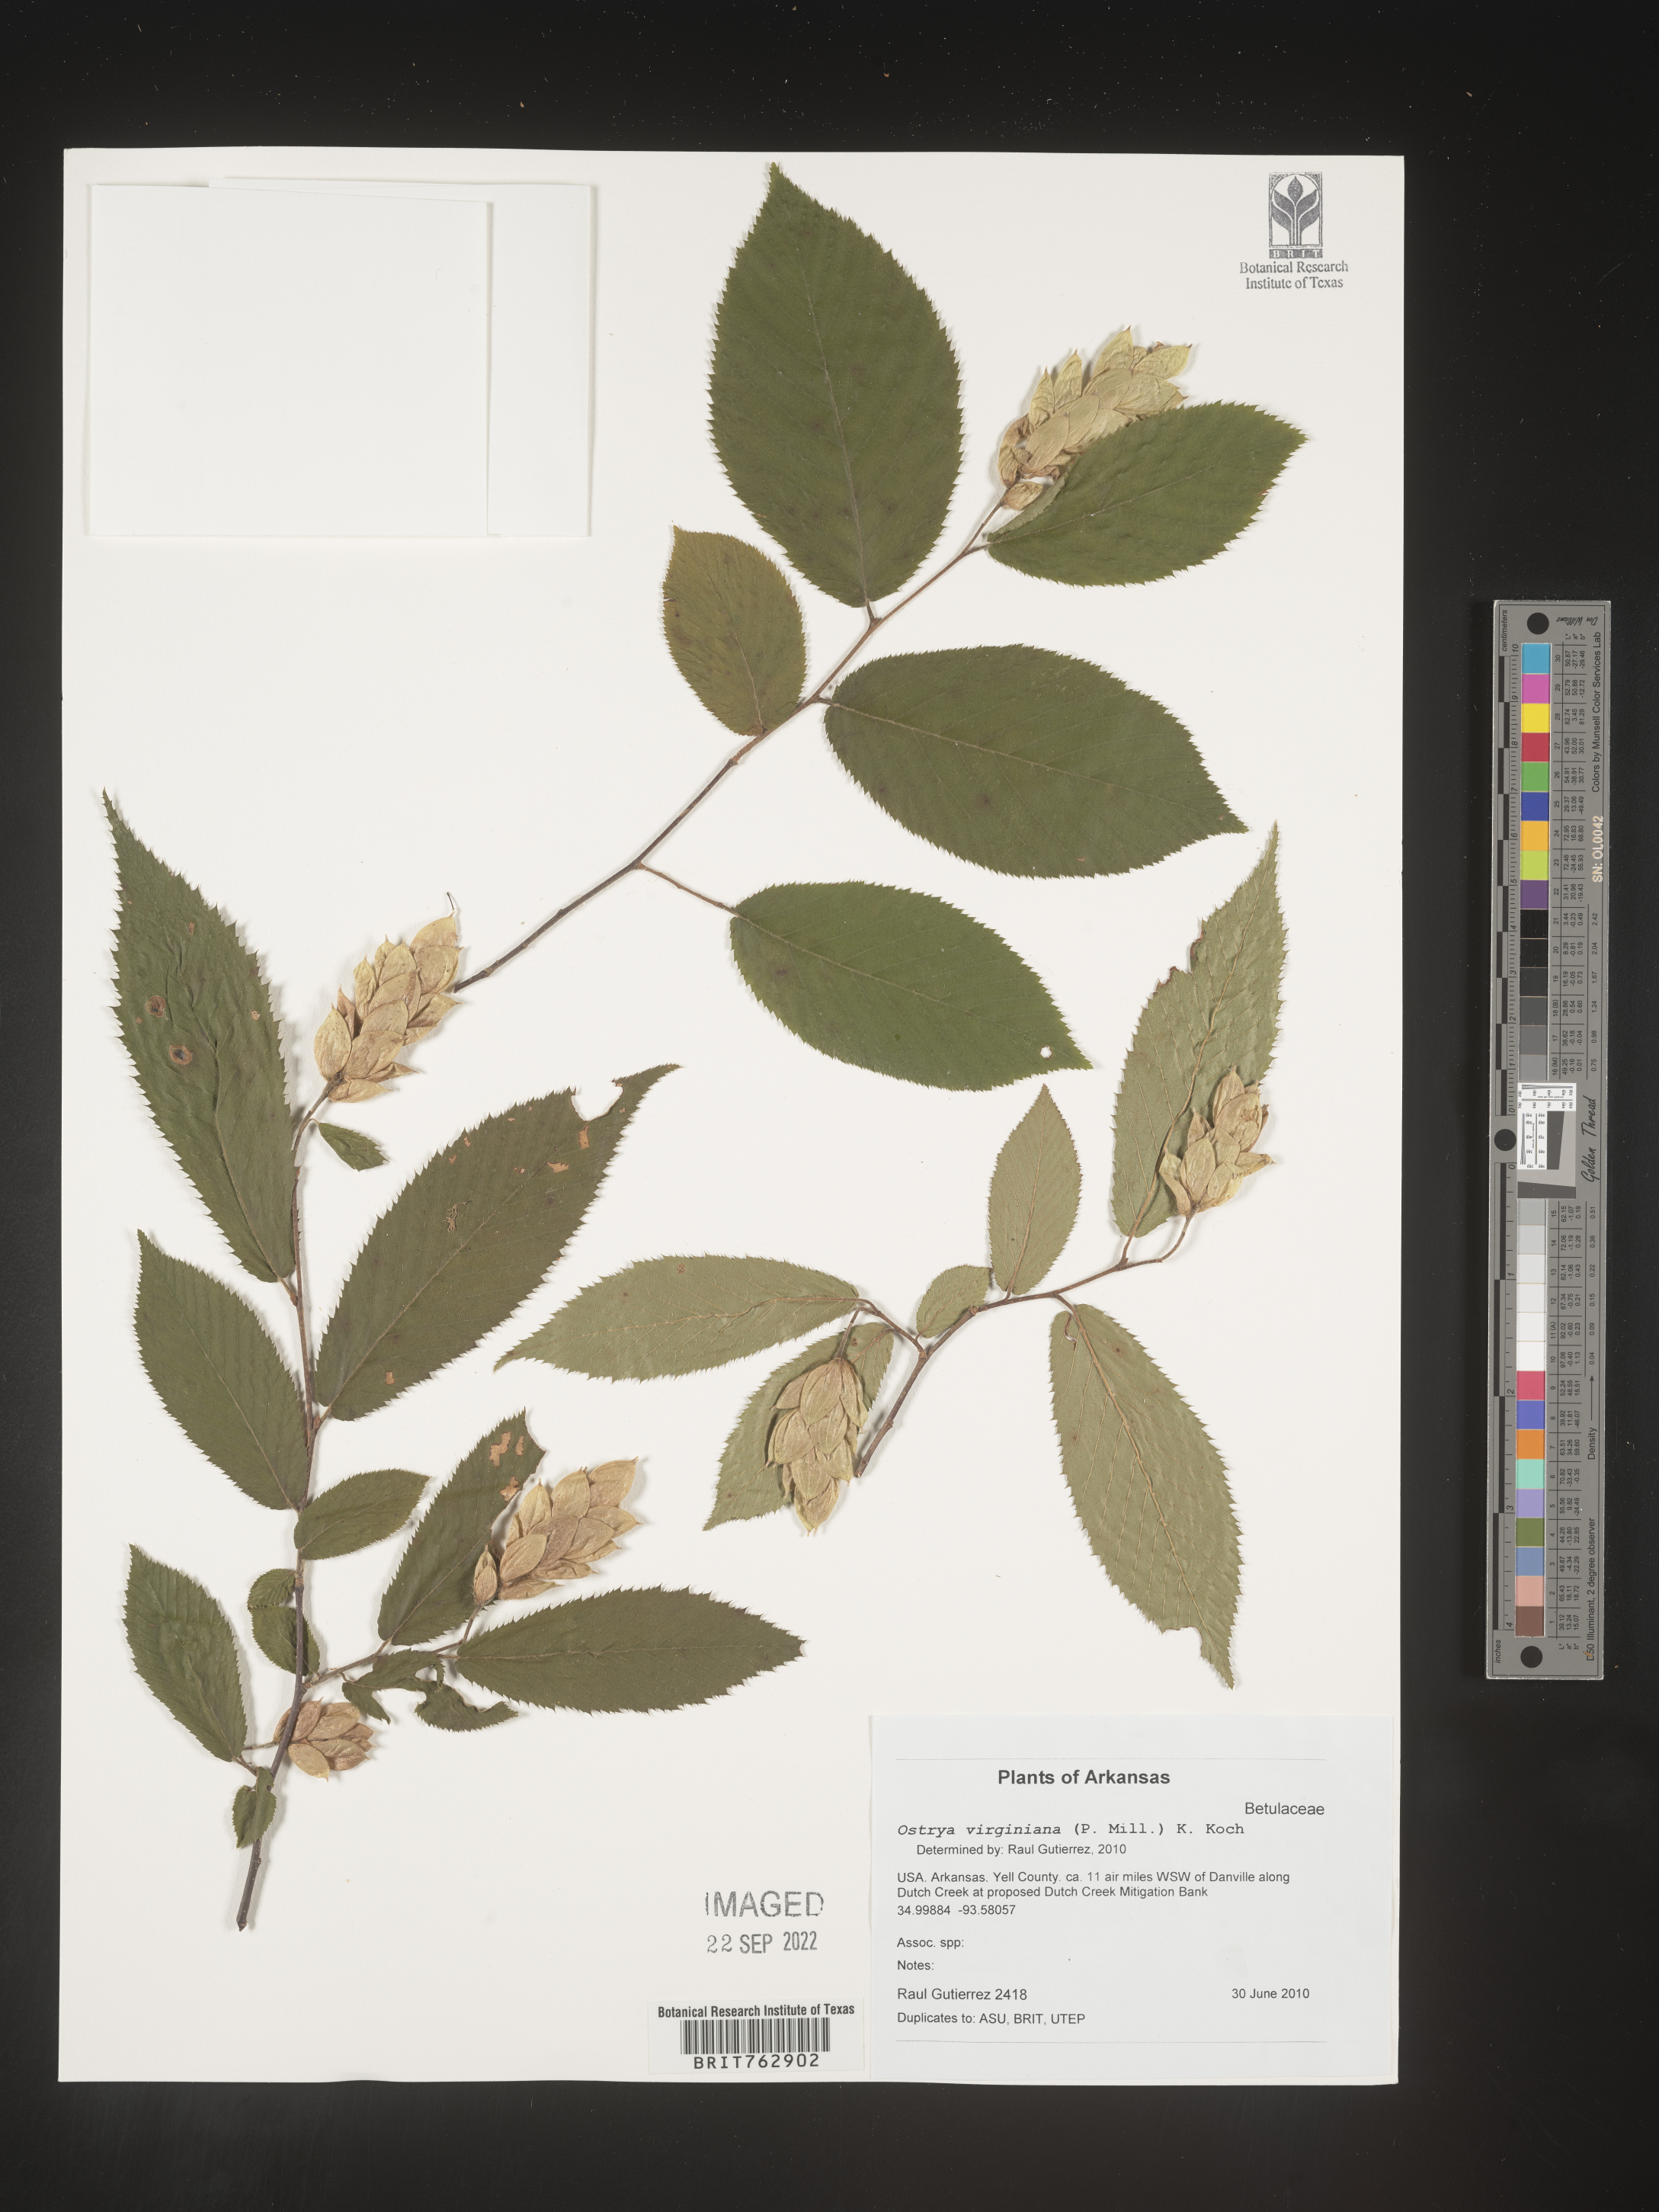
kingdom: Plantae
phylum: Tracheophyta
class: Magnoliopsida
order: Fagales
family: Betulaceae
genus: Ostrya
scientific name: Ostrya virginiana
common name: Ironwood
